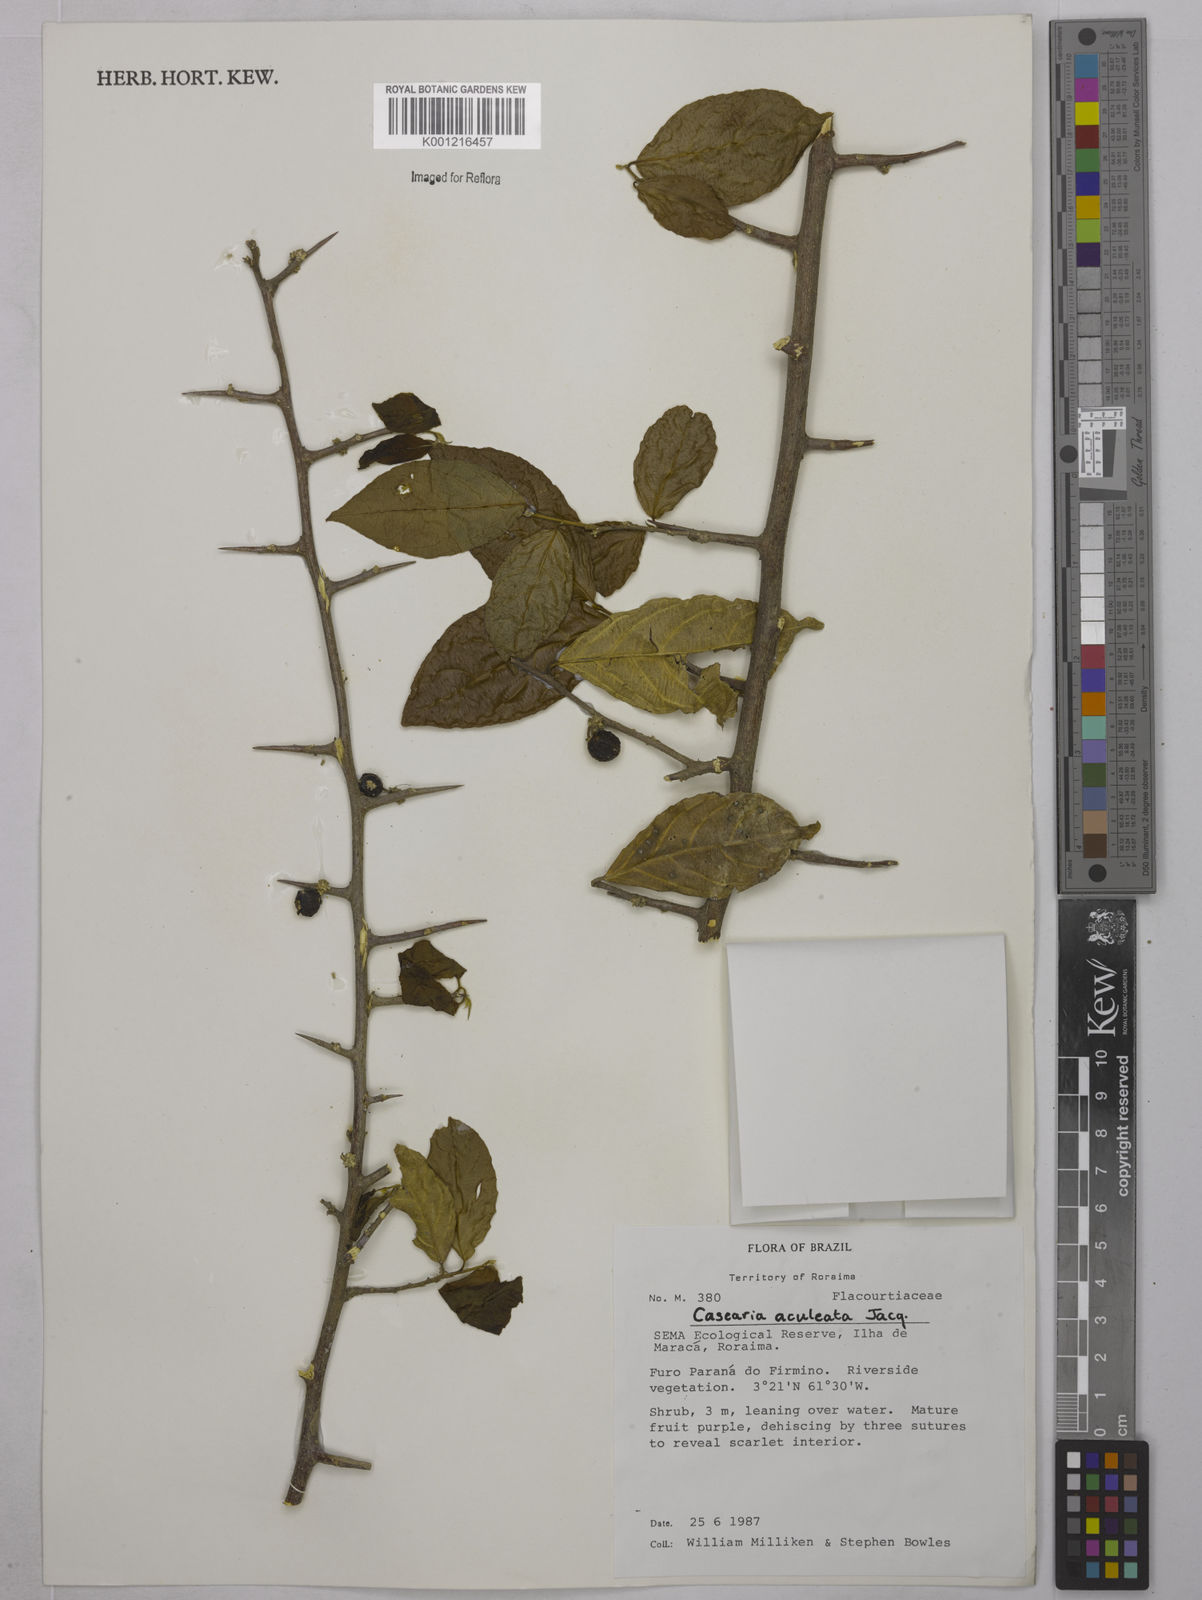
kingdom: Plantae
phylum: Tracheophyta
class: Magnoliopsida
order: Malpighiales
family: Salicaceae
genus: Casearia
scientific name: Casearia aculeata
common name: Cockspur
